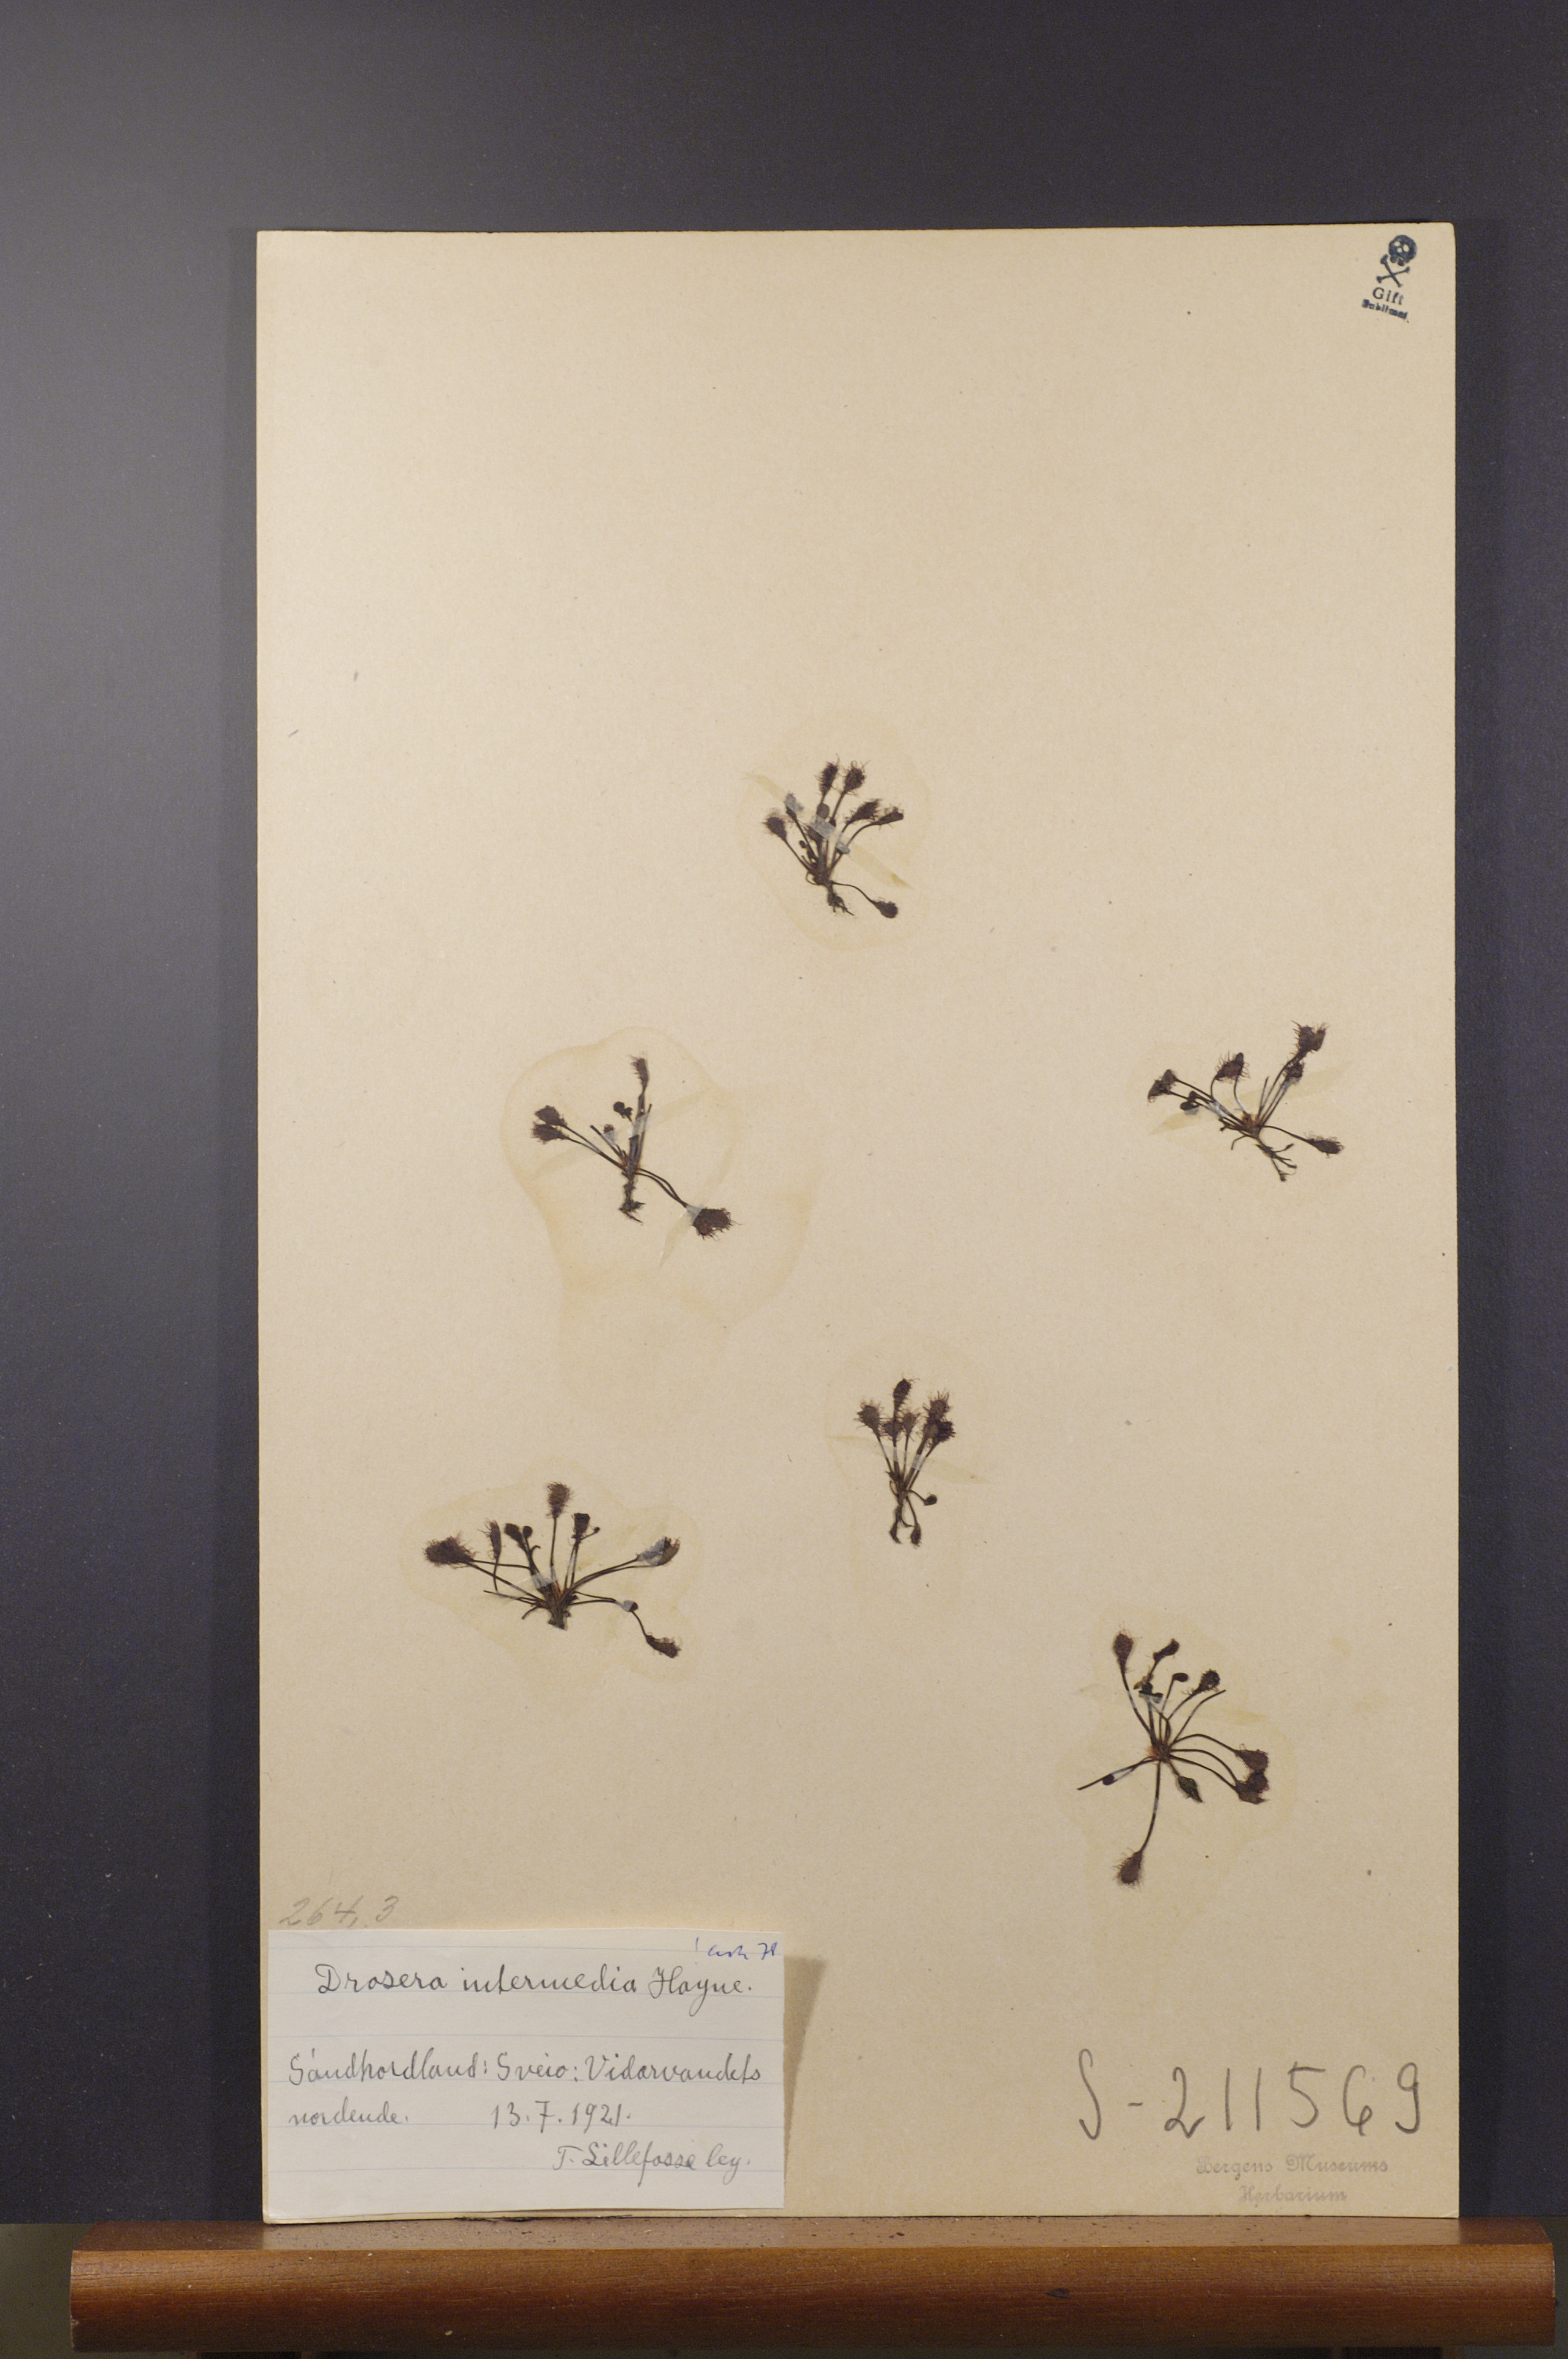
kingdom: Plantae
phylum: Tracheophyta
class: Magnoliopsida
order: Caryophyllales
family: Droseraceae
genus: Drosera
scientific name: Drosera intermedia
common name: Oblong-leaved sundew
